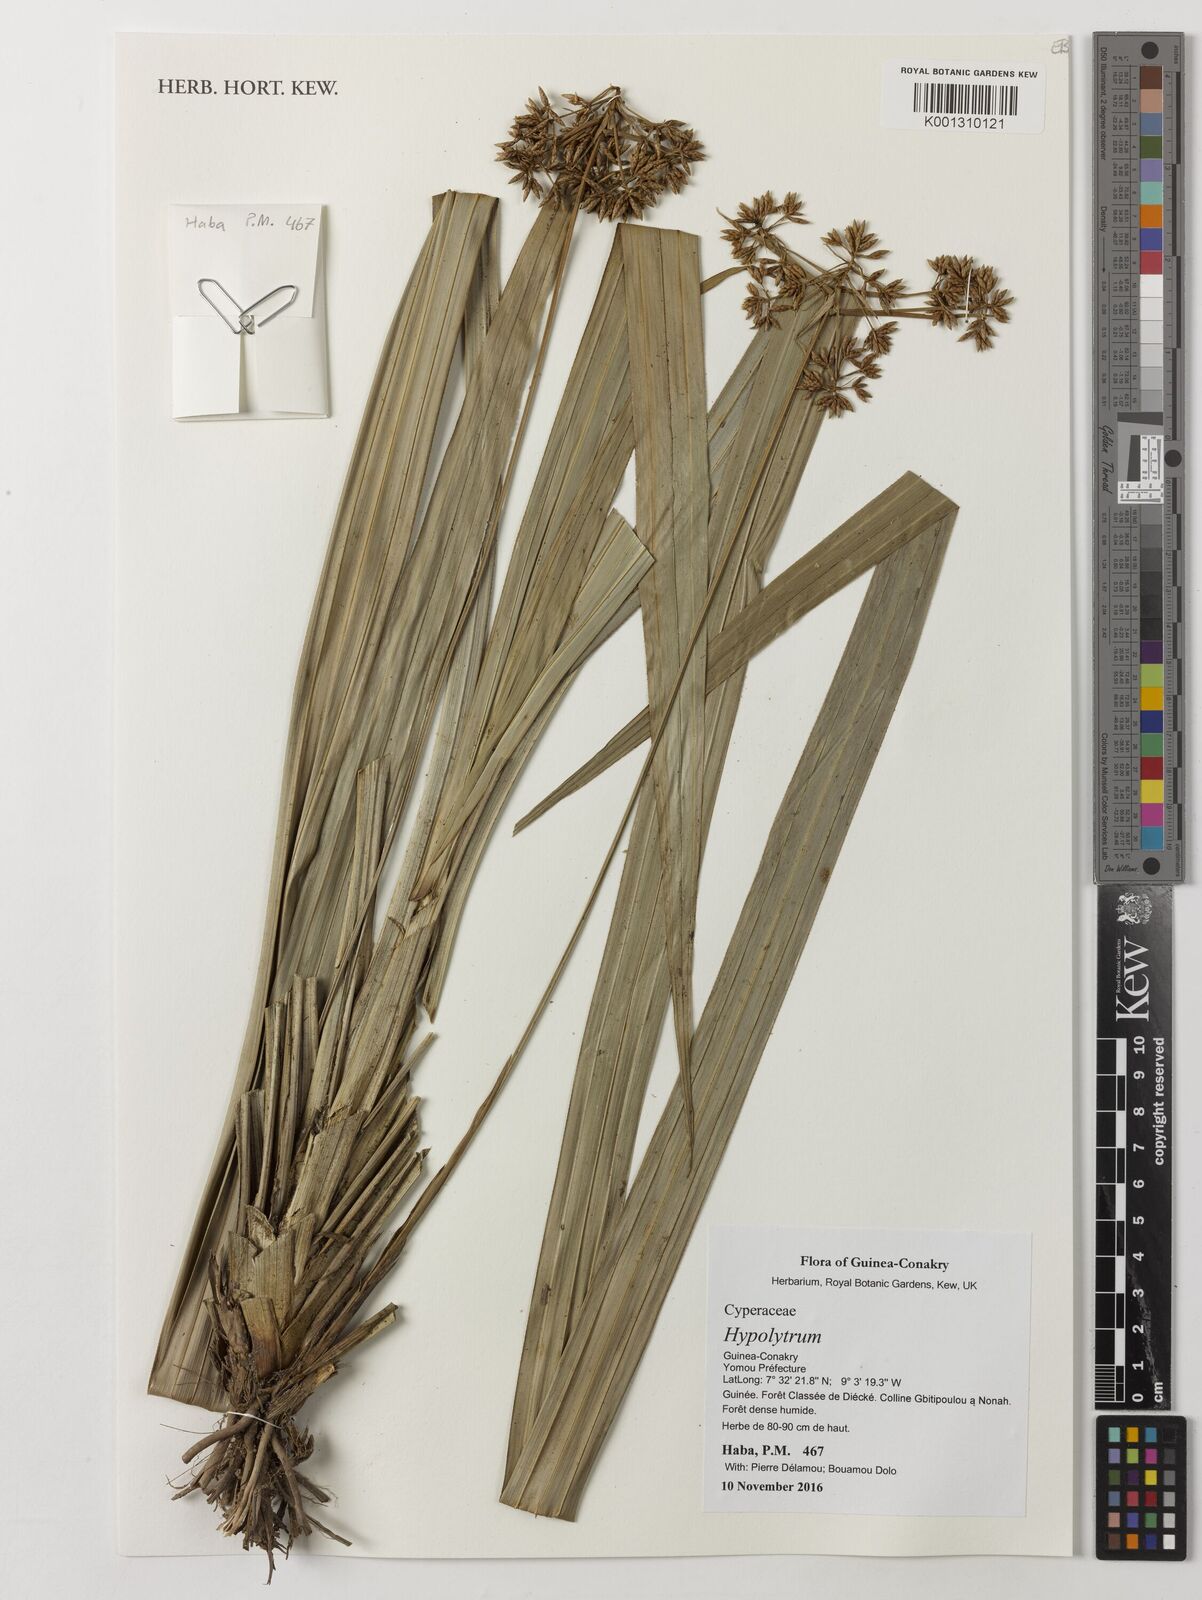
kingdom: Plantae
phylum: Tracheophyta
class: Liliopsida
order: Poales
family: Cyperaceae
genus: Hypolytrum
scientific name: Hypolytrum
